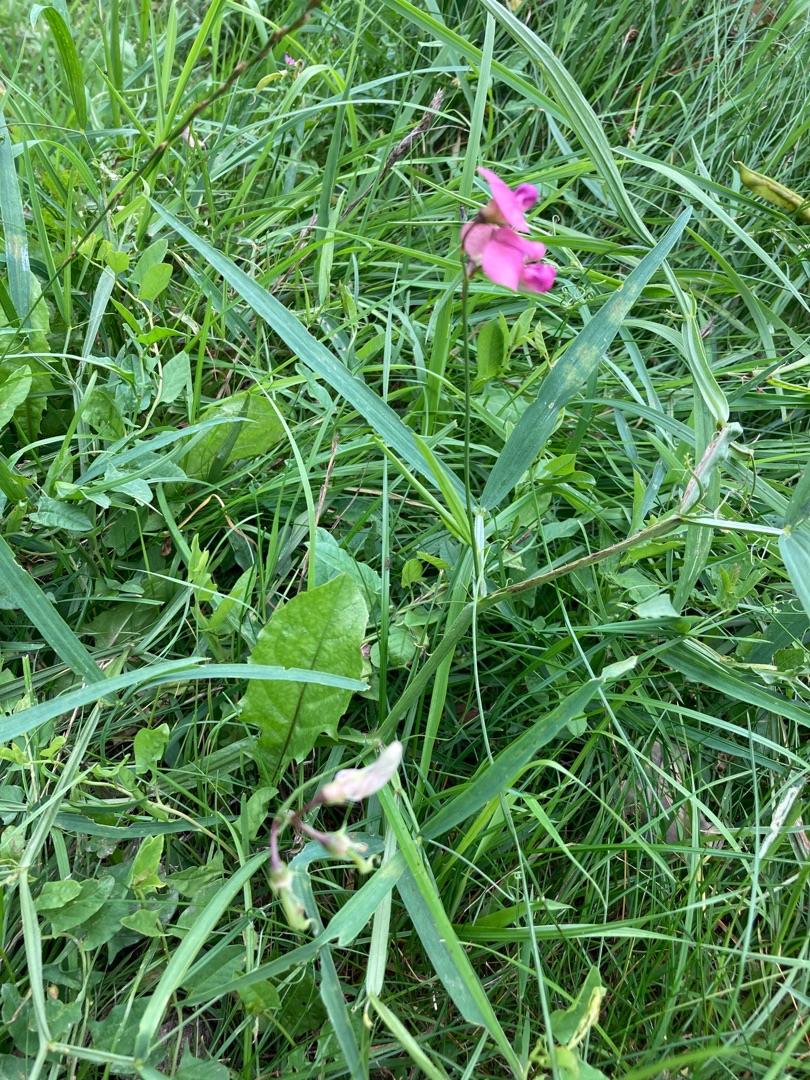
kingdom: Plantae
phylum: Tracheophyta
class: Magnoliopsida
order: Fabales
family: Fabaceae
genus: Lathyrus
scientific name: Lathyrus sylvestris
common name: Skov-fladbælg
